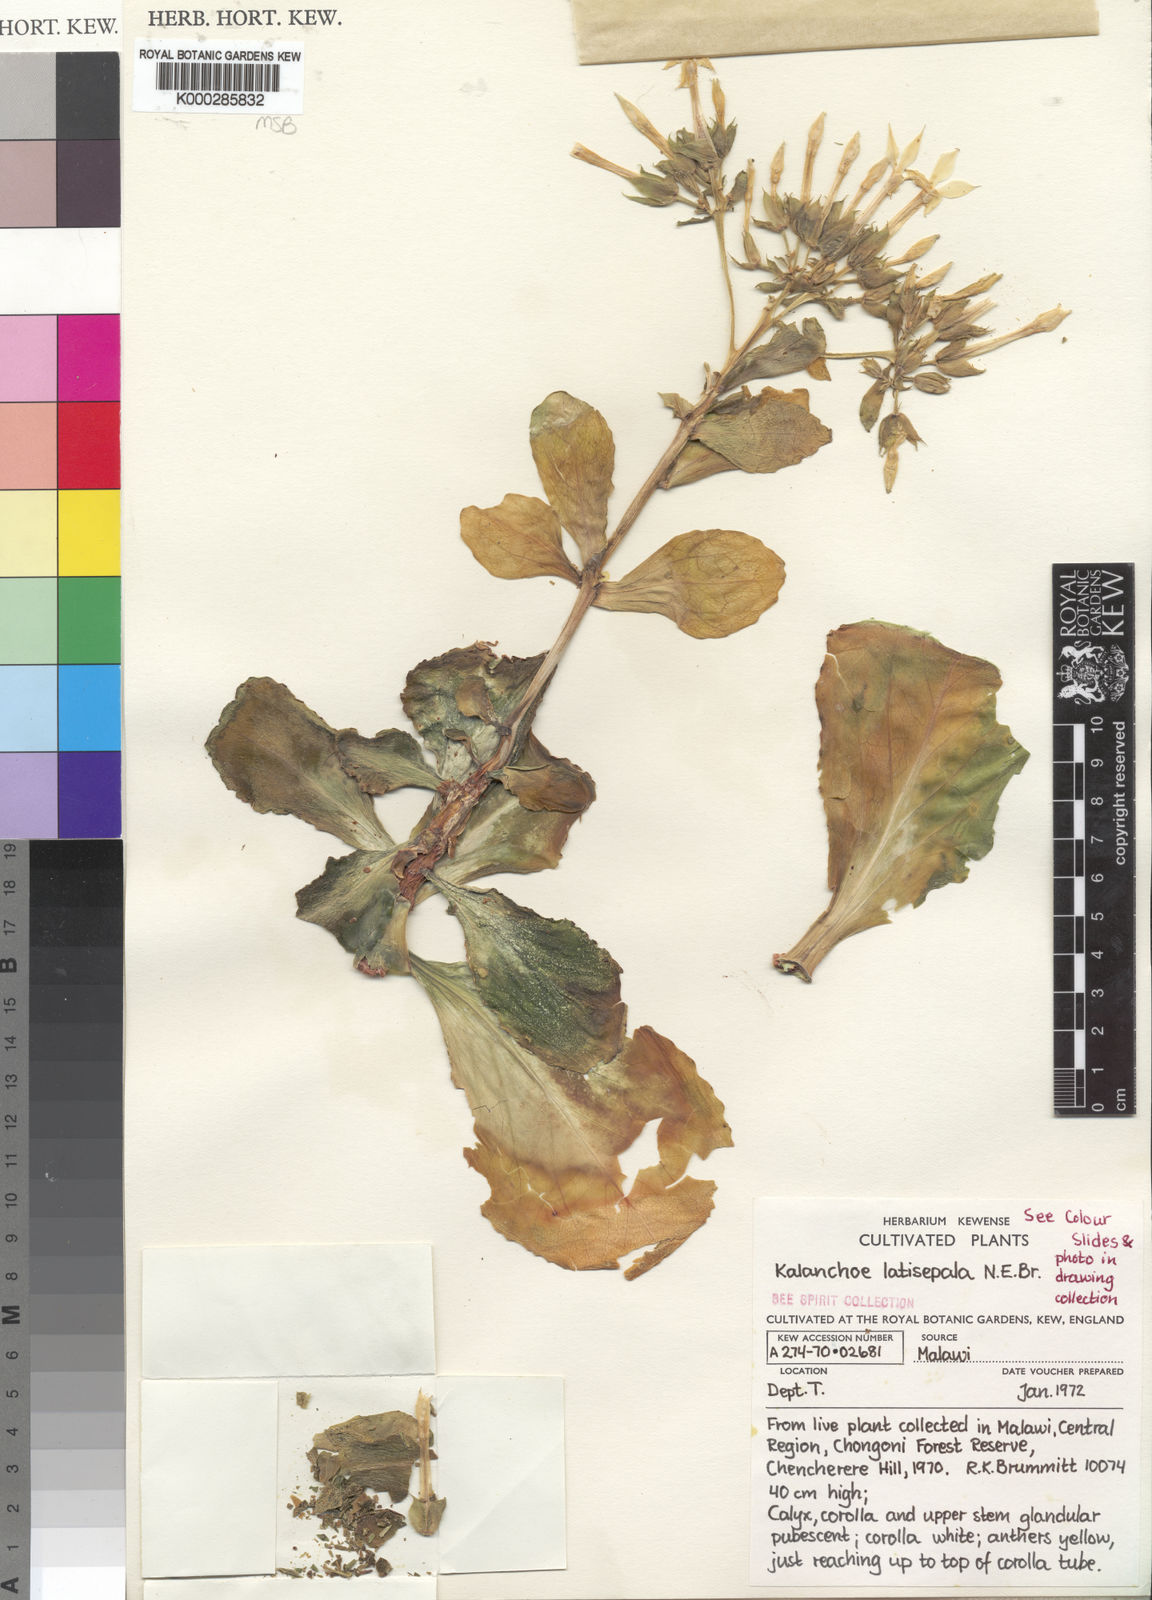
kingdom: Plantae
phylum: Tracheophyta
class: Magnoliopsida
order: Saxifragales
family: Crassulaceae
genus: Kalanchoe
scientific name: Kalanchoe latisepala
